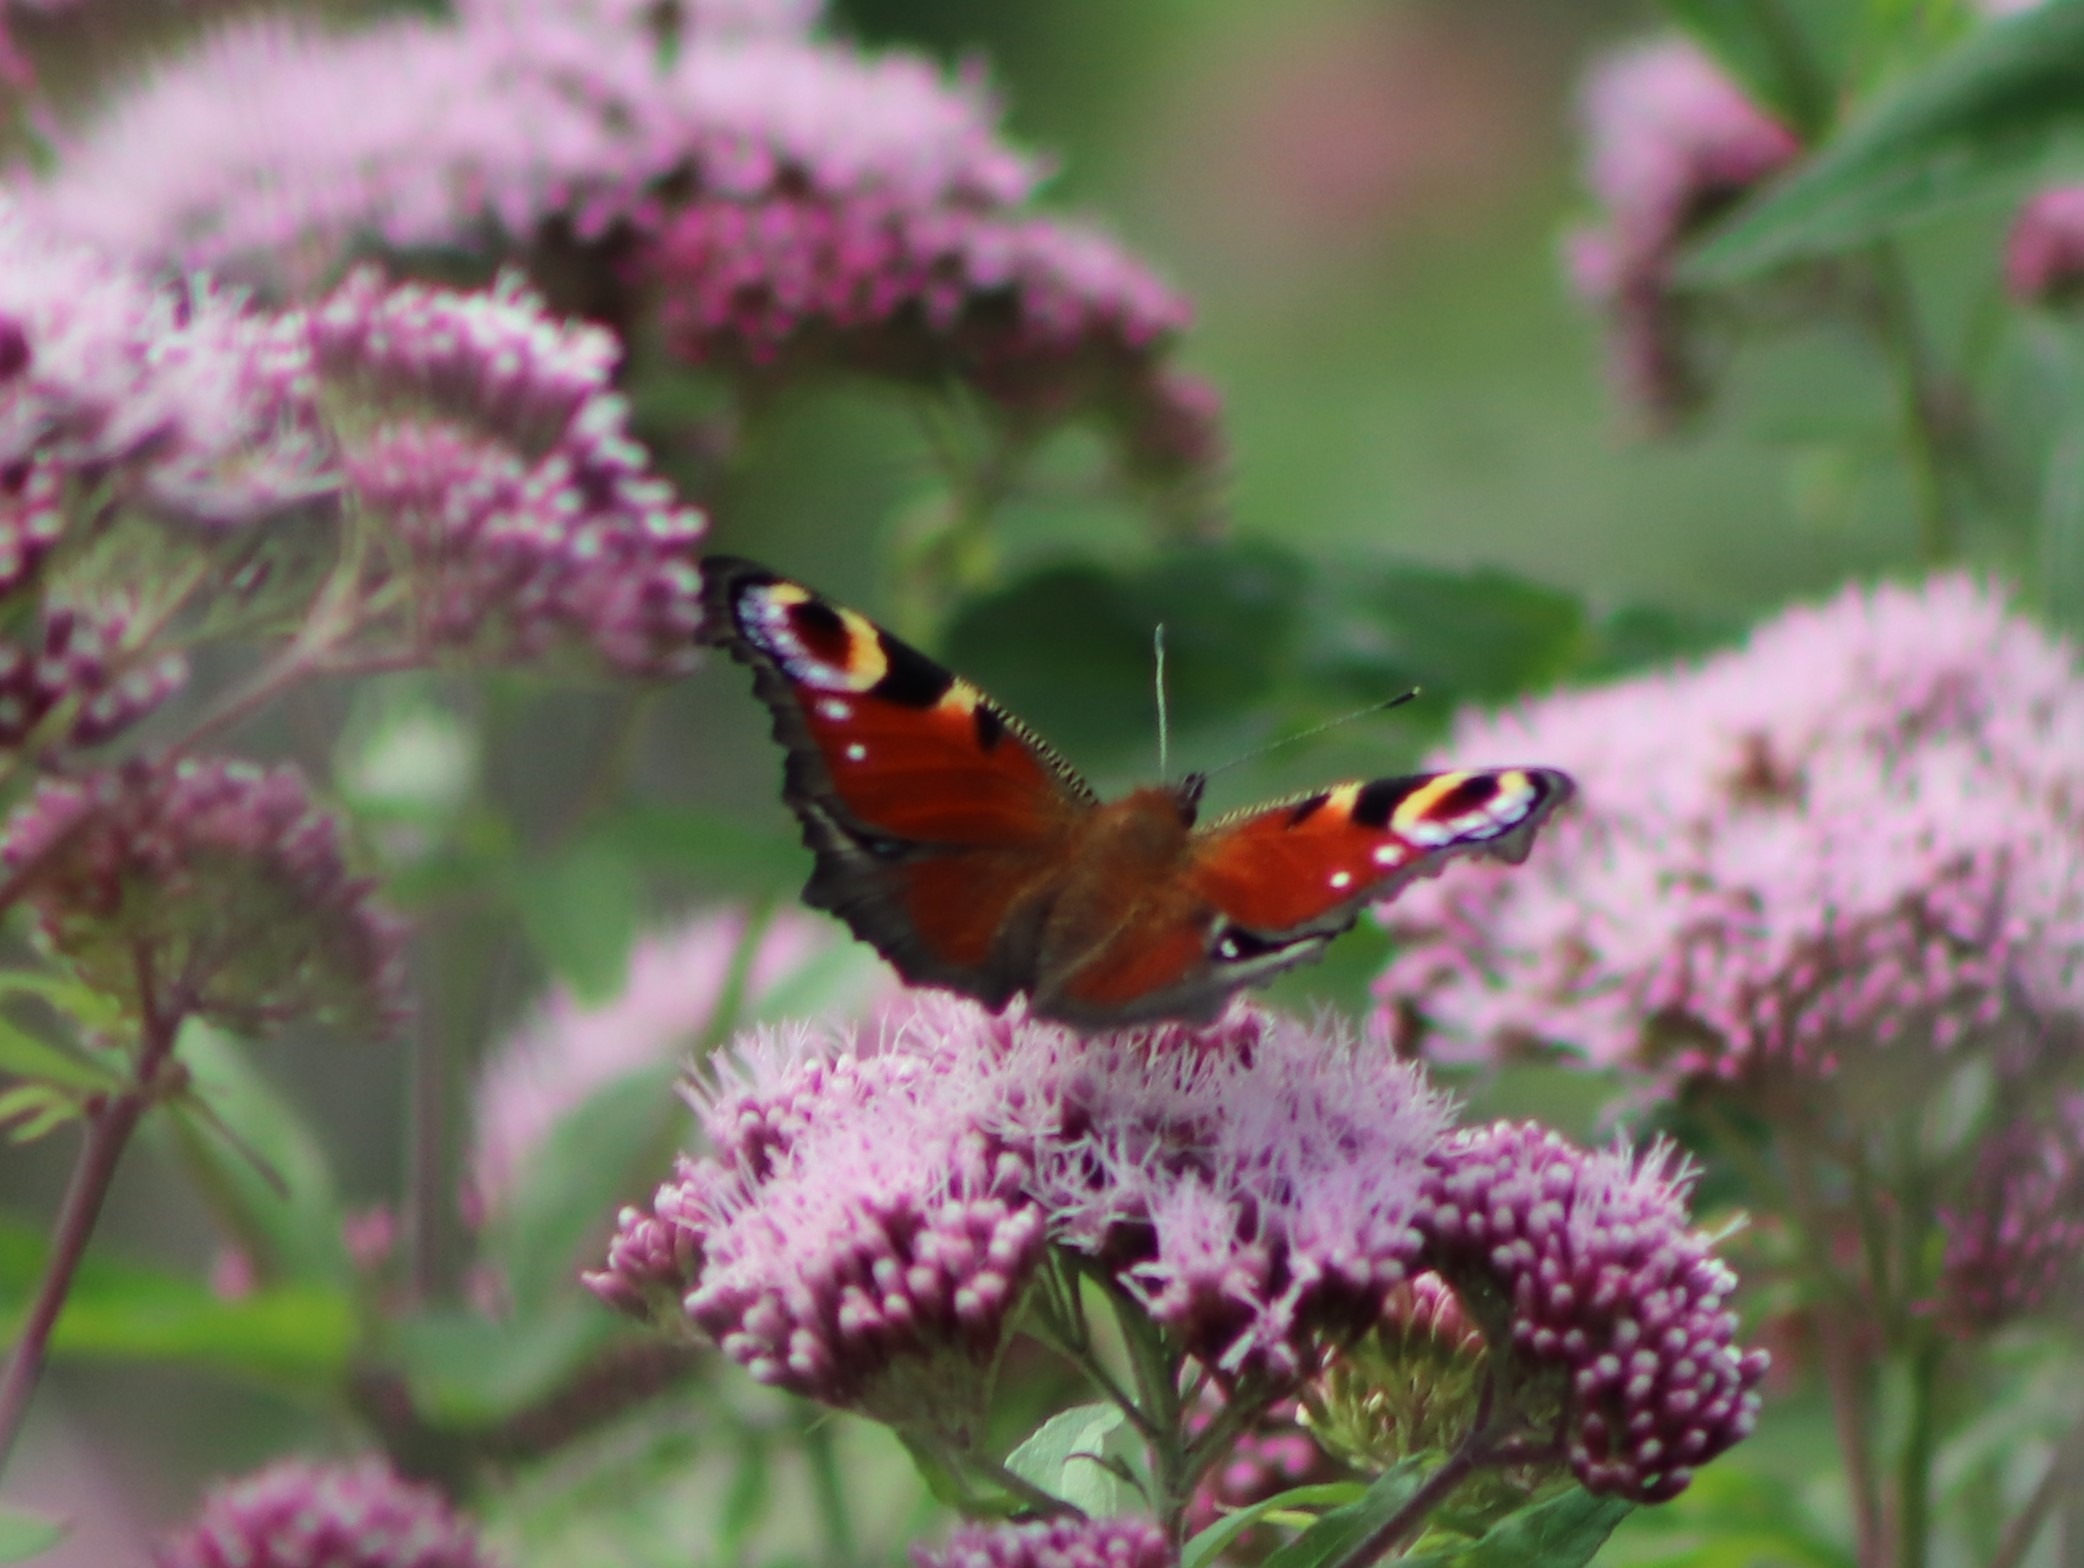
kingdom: Animalia
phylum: Arthropoda
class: Insecta
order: Lepidoptera
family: Nymphalidae
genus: Aglais
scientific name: Aglais io
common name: Dagpåfugleøje
